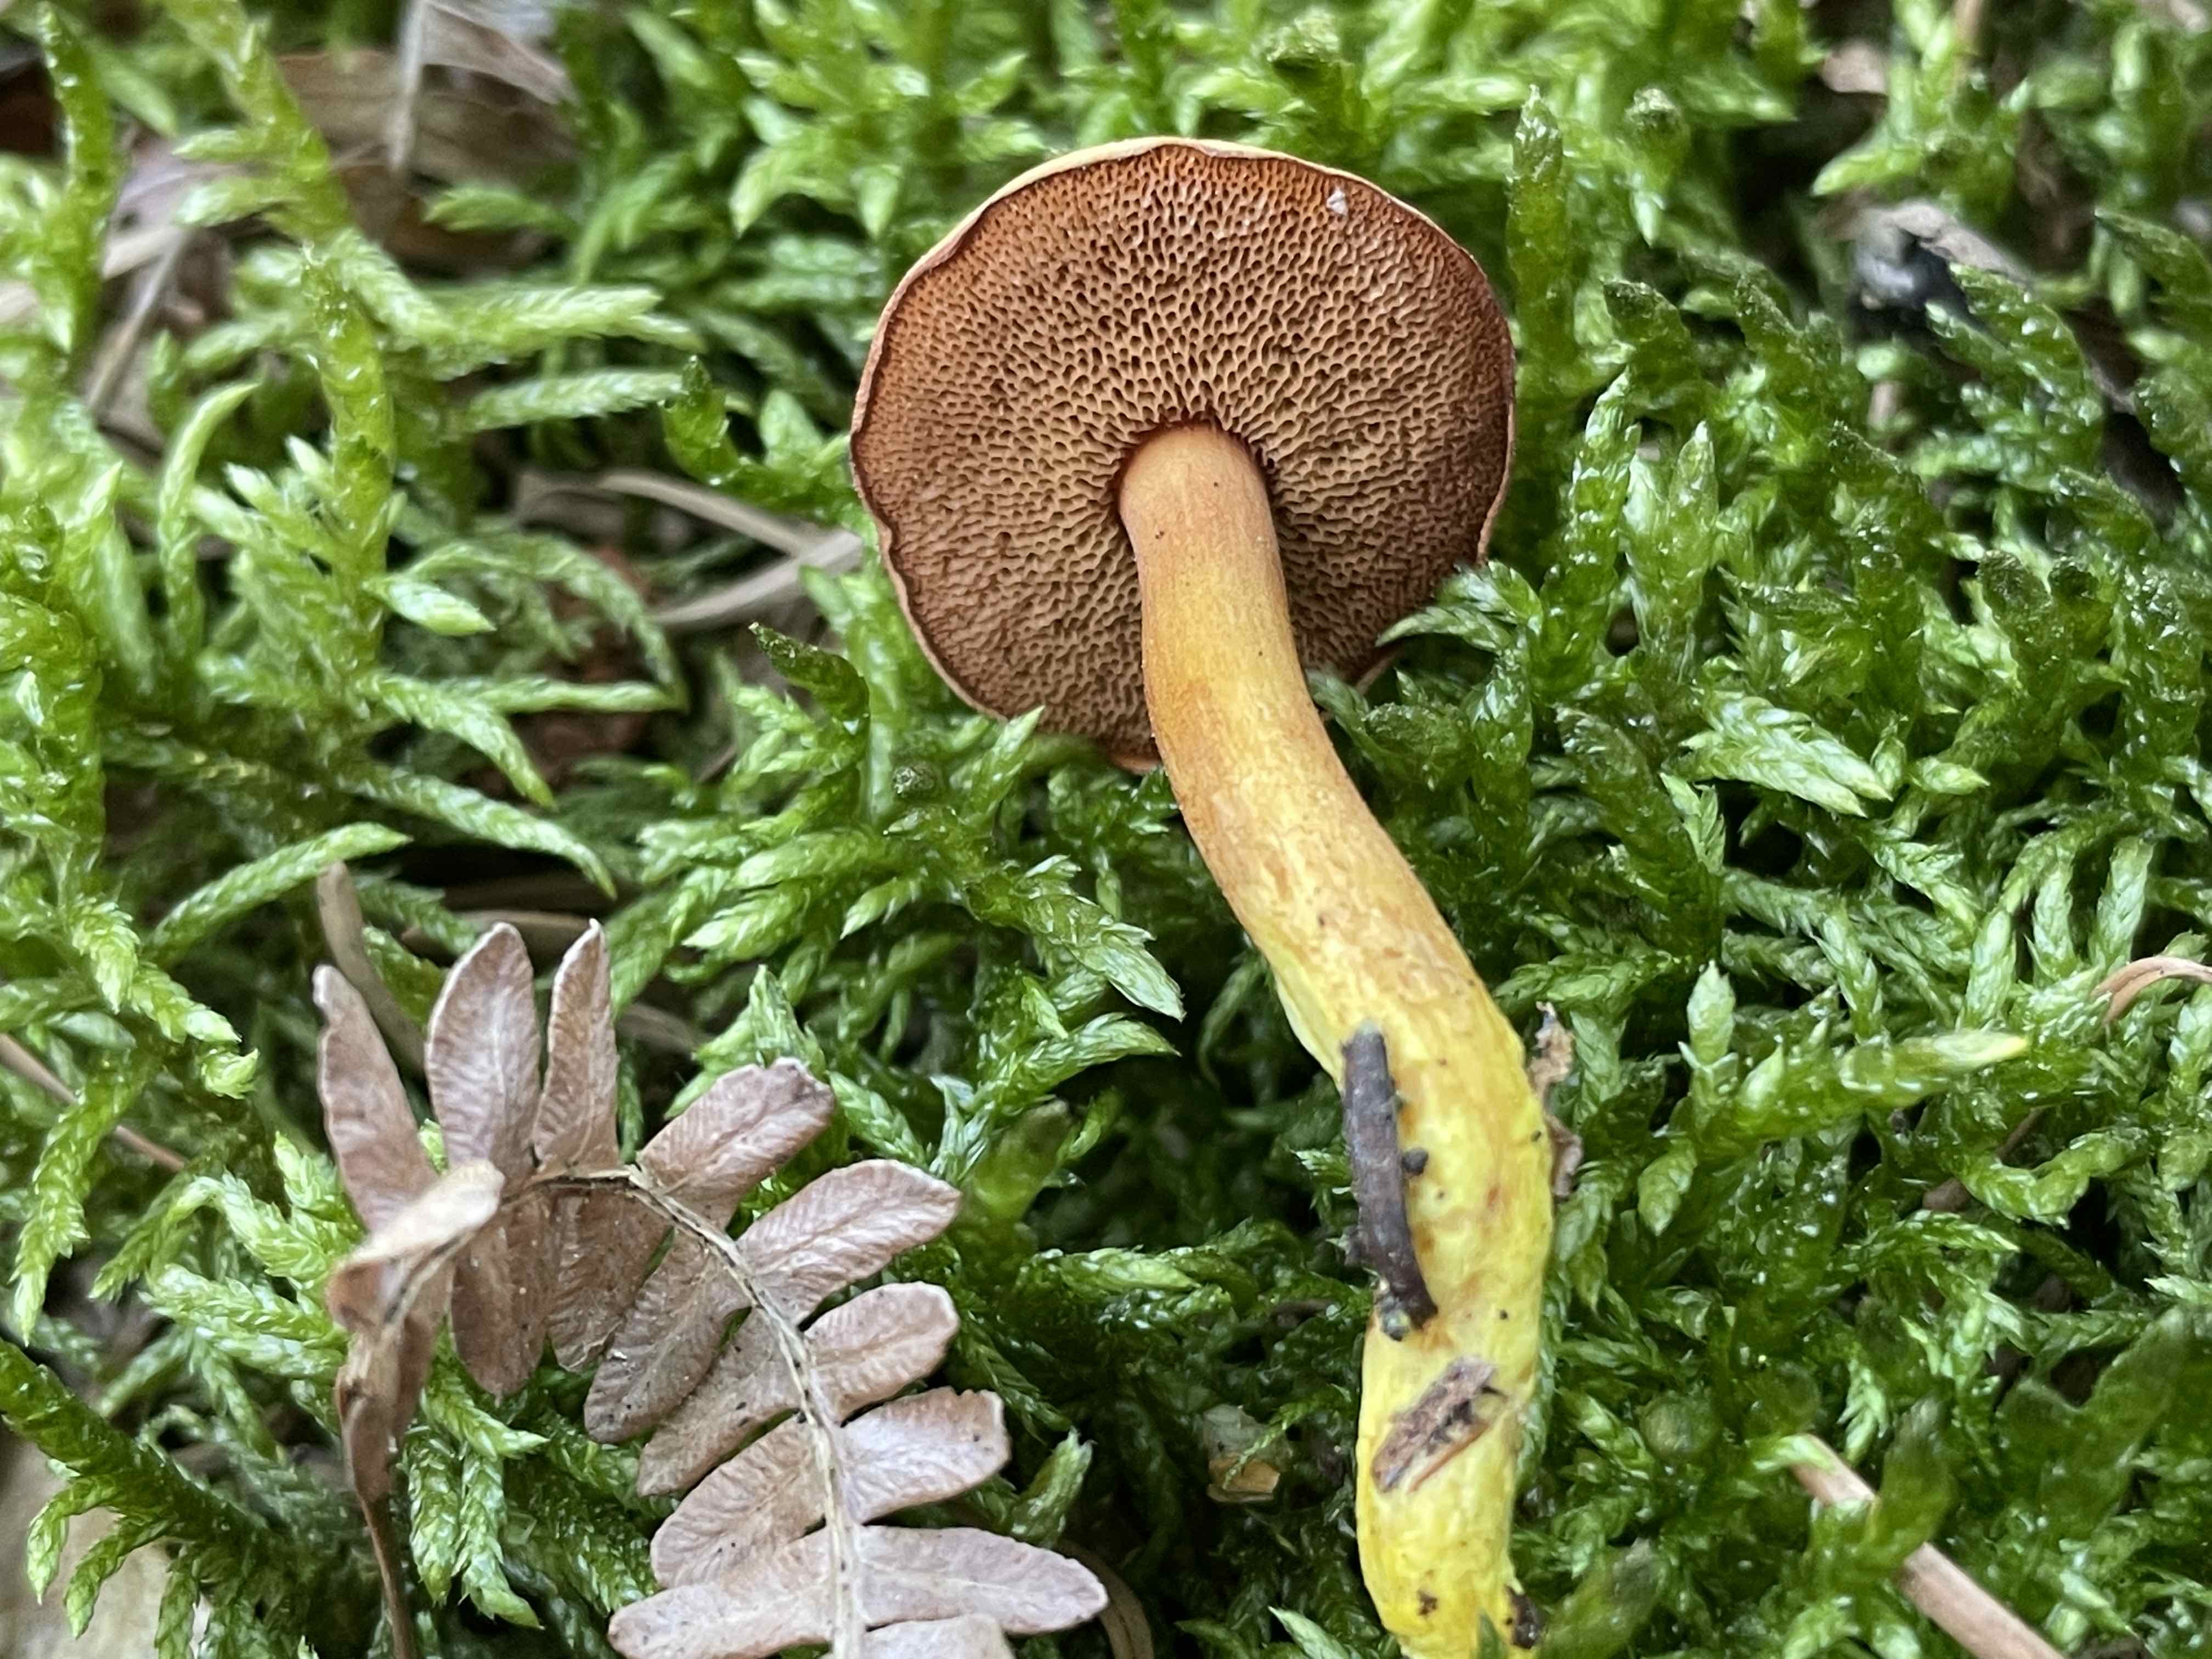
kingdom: Fungi
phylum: Basidiomycota
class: Agaricomycetes
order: Boletales
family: Boletaceae
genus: Chalciporus
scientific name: Chalciporus piperatus
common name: peberrørhat
